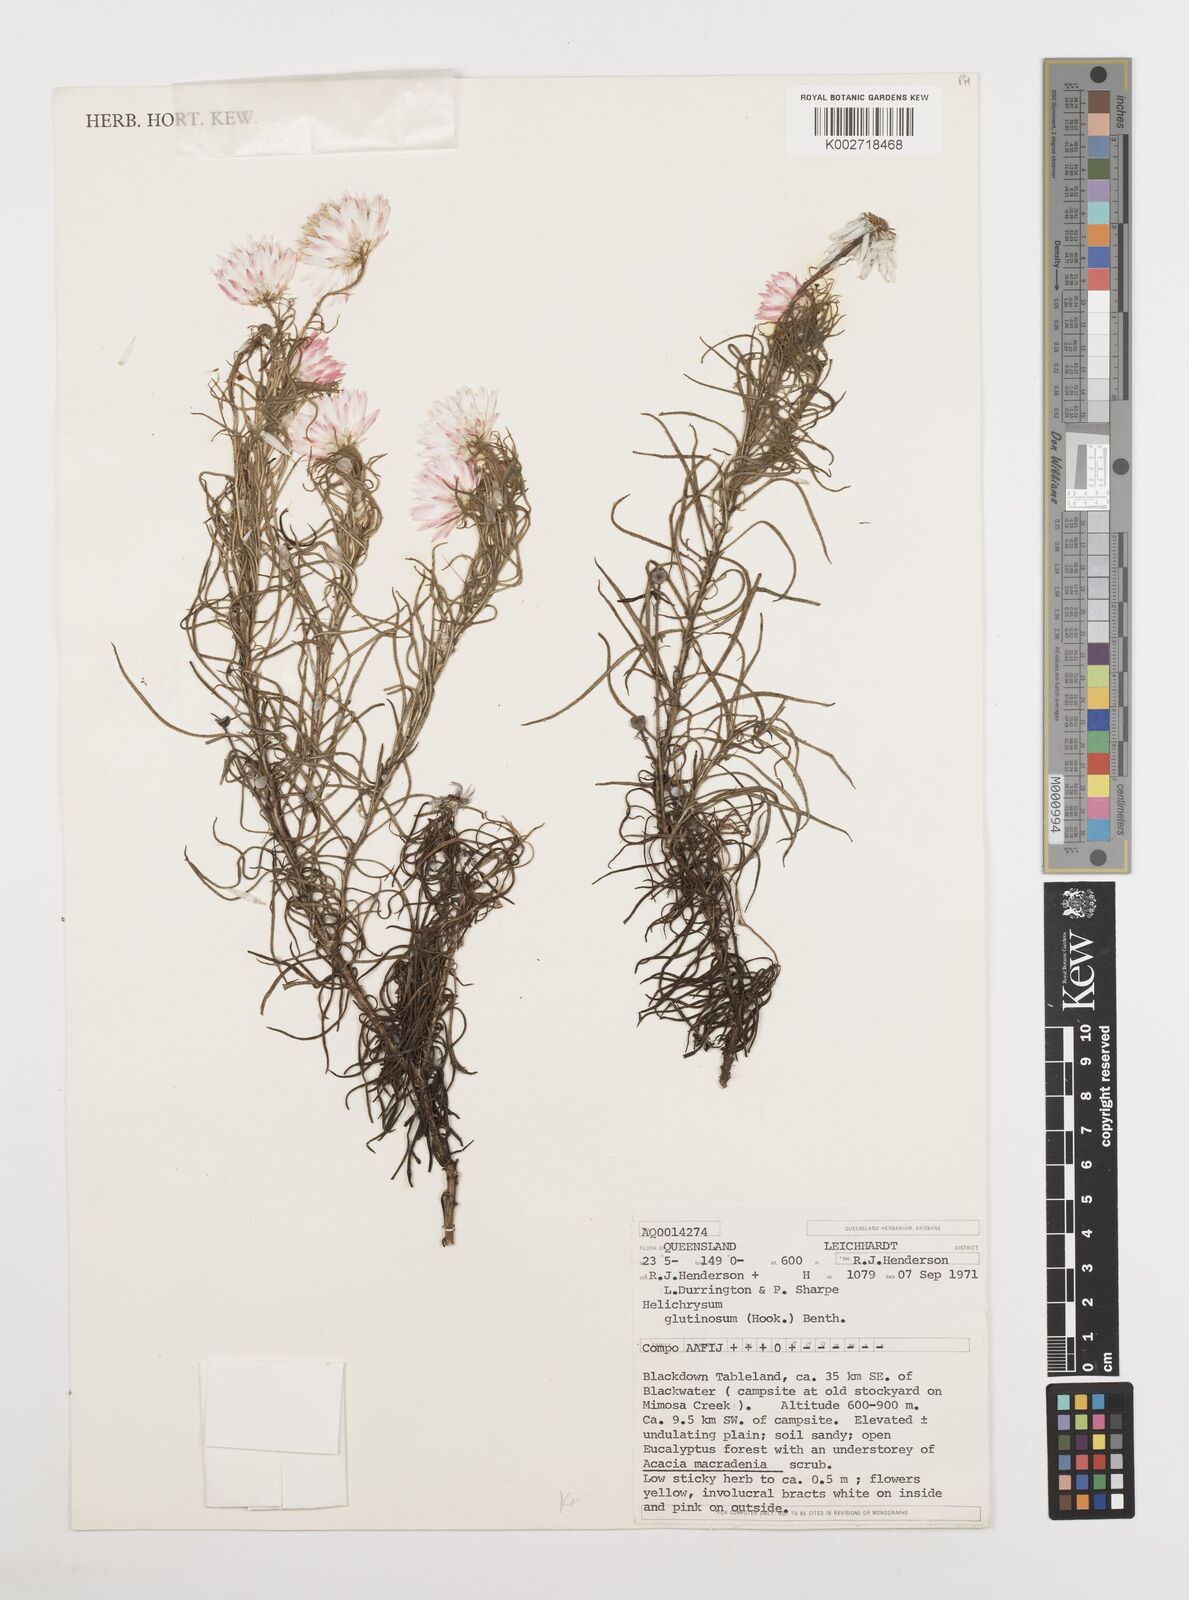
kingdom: Plantae
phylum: Tracheophyta
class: Magnoliopsida
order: Asterales
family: Asteraceae
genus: Coronidium
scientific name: Coronidium glutinosum
